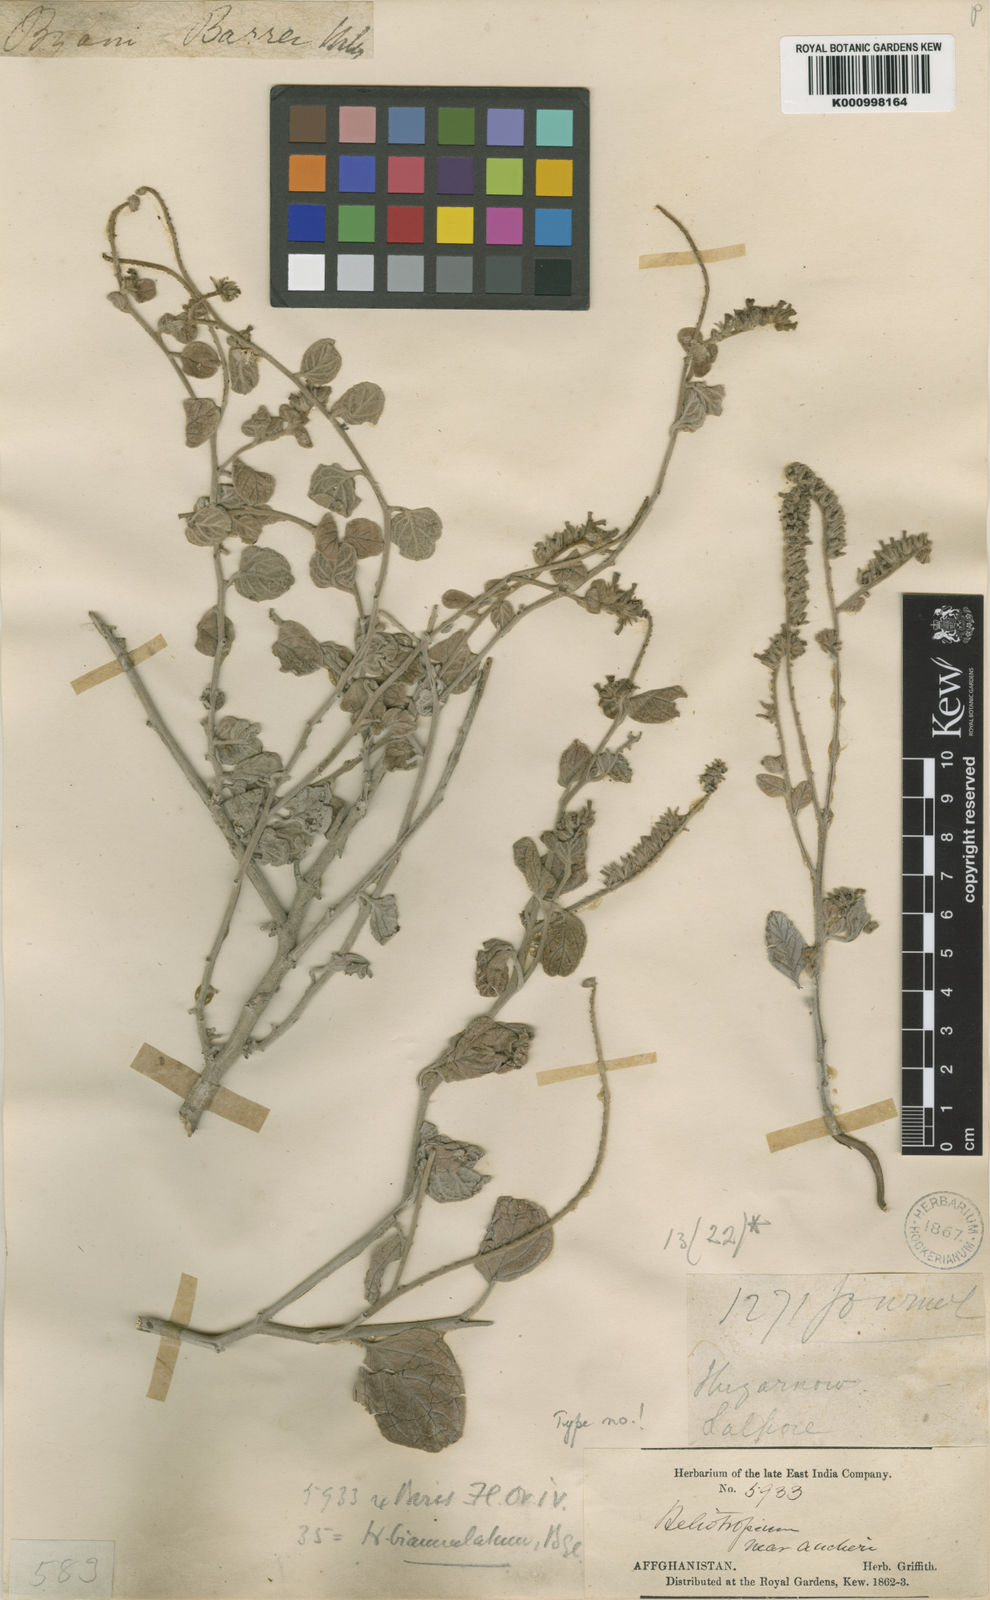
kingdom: Plantae
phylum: Tracheophyta
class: Magnoliopsida
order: Boraginales
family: Heliotropiaceae
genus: Heliotropium
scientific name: Heliotropium biannulatum
